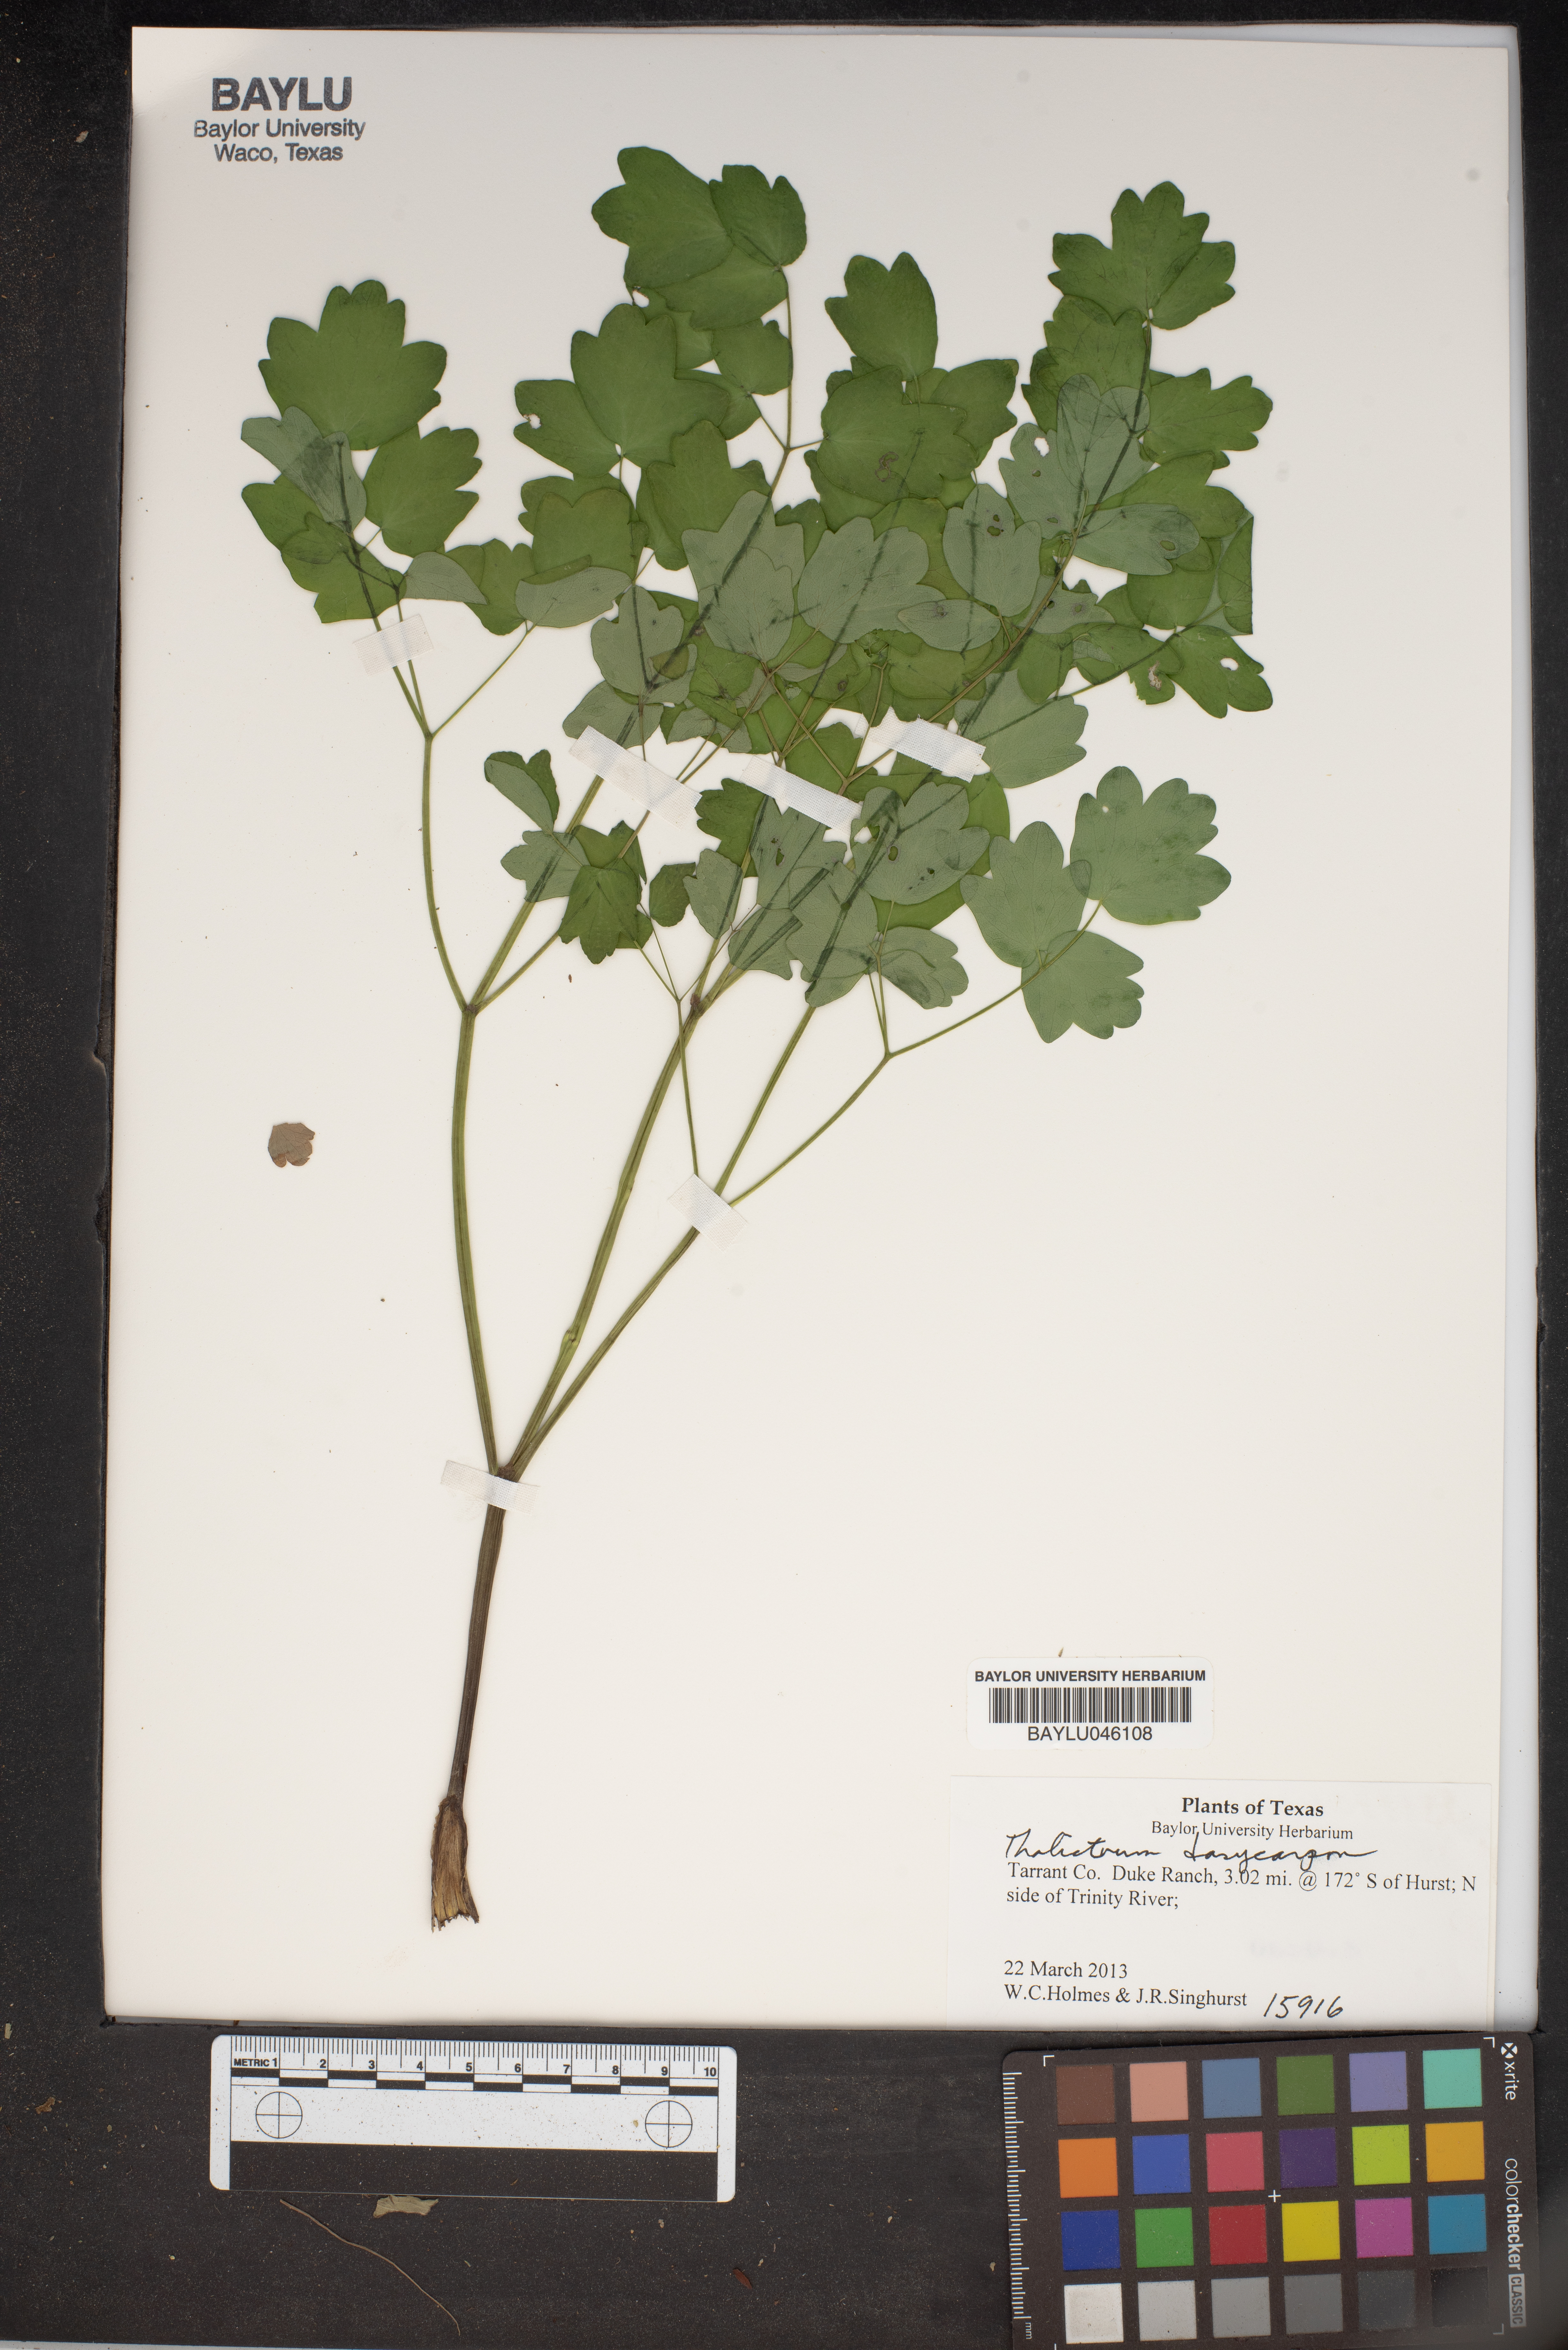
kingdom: Plantae
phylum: Tracheophyta
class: Magnoliopsida
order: Ranunculales
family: Ranunculaceae
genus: Thalictrum
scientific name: Thalictrum dasycarpum
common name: Purple meadow-rue
